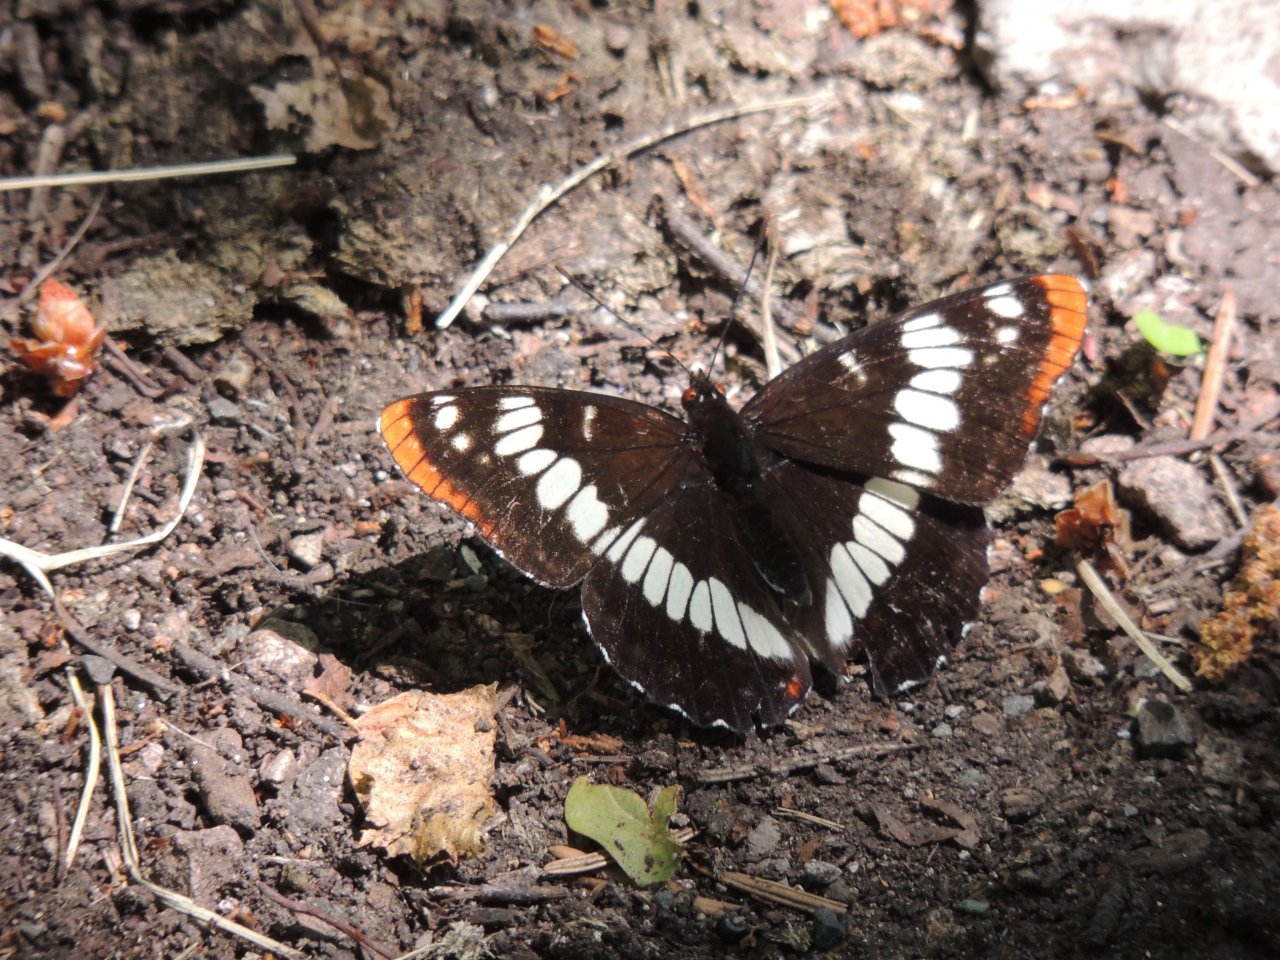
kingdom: Animalia
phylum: Arthropoda
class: Insecta
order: Lepidoptera
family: Nymphalidae
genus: Limenitis
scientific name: Limenitis lorquini
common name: Lorquin's Admiral
